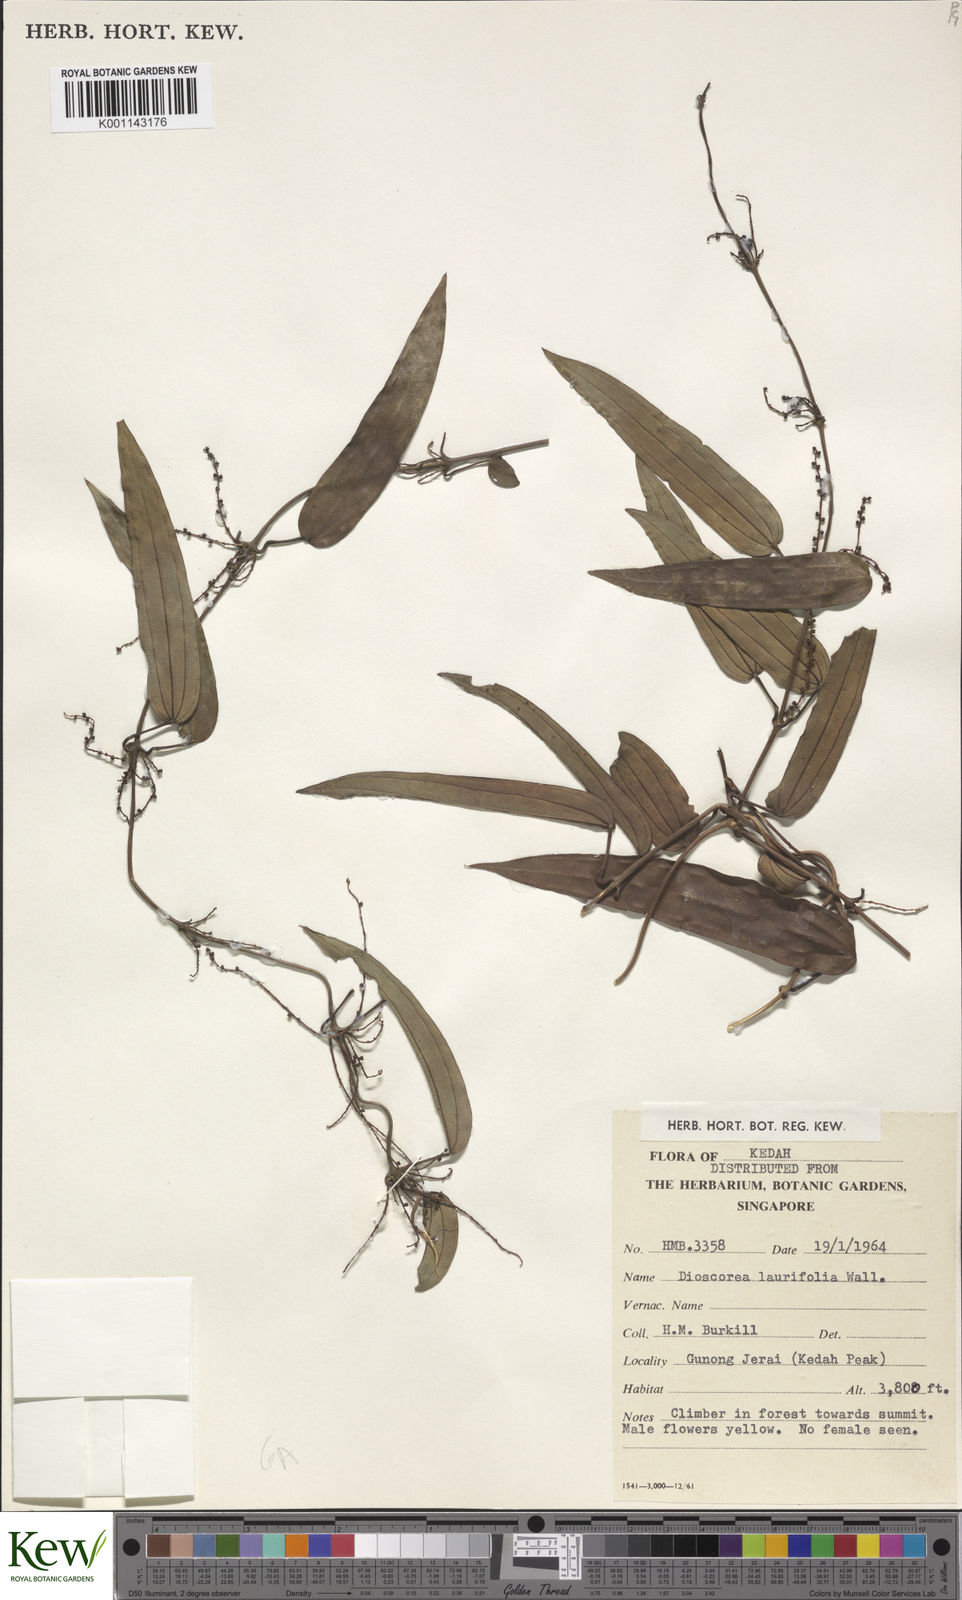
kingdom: Plantae
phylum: Tracheophyta
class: Liliopsida
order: Dioscoreales
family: Dioscoreaceae
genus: Dioscorea
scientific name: Dioscorea laurifolia
